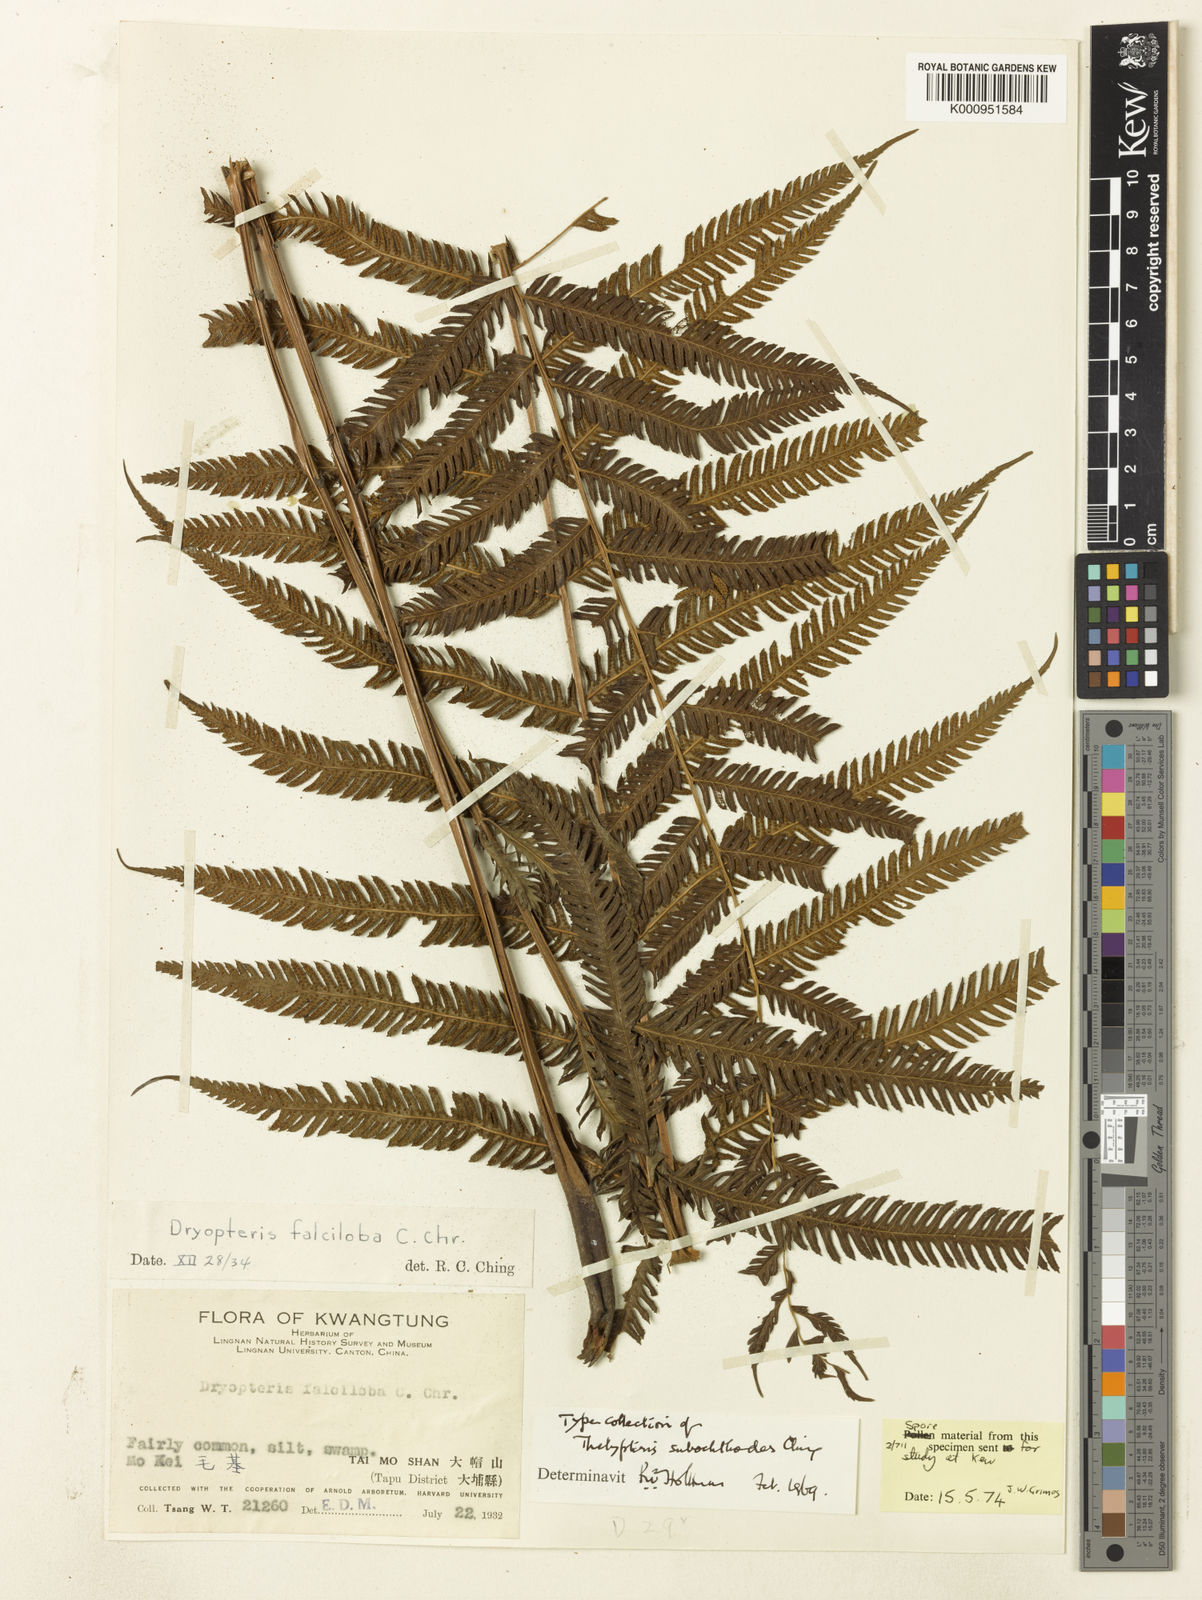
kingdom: Plantae
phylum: Tracheophyta
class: Polypodiopsida
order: Polypodiales
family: Thelypteridaceae
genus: Pseudocyclosorus
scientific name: Pseudocyclosorus subochthodes
